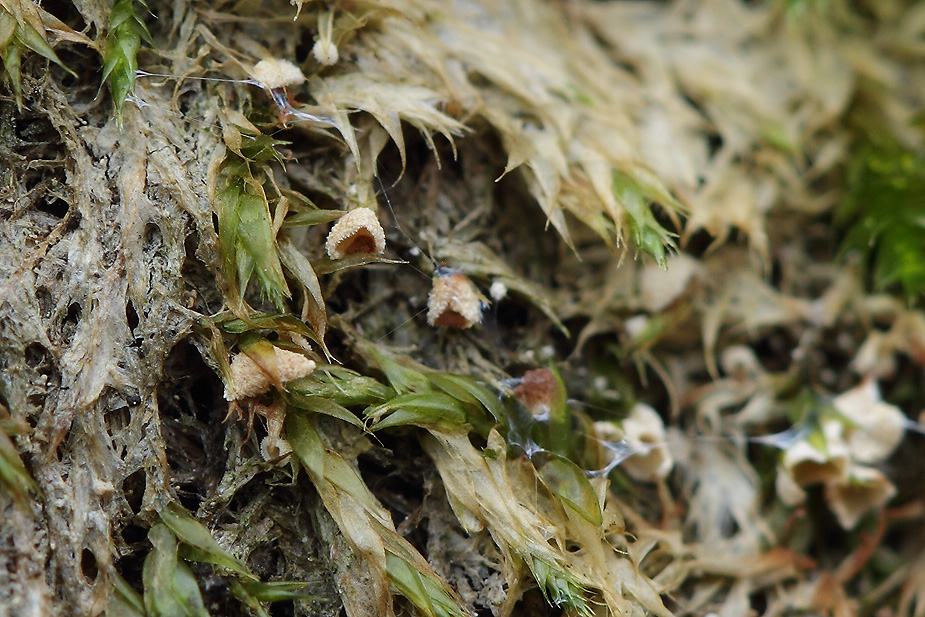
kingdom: Fungi
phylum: Basidiomycota
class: Agaricomycetes
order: Agaricales
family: Chromocyphellaceae
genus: Chromocyphella
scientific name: Chromocyphella muscicola
